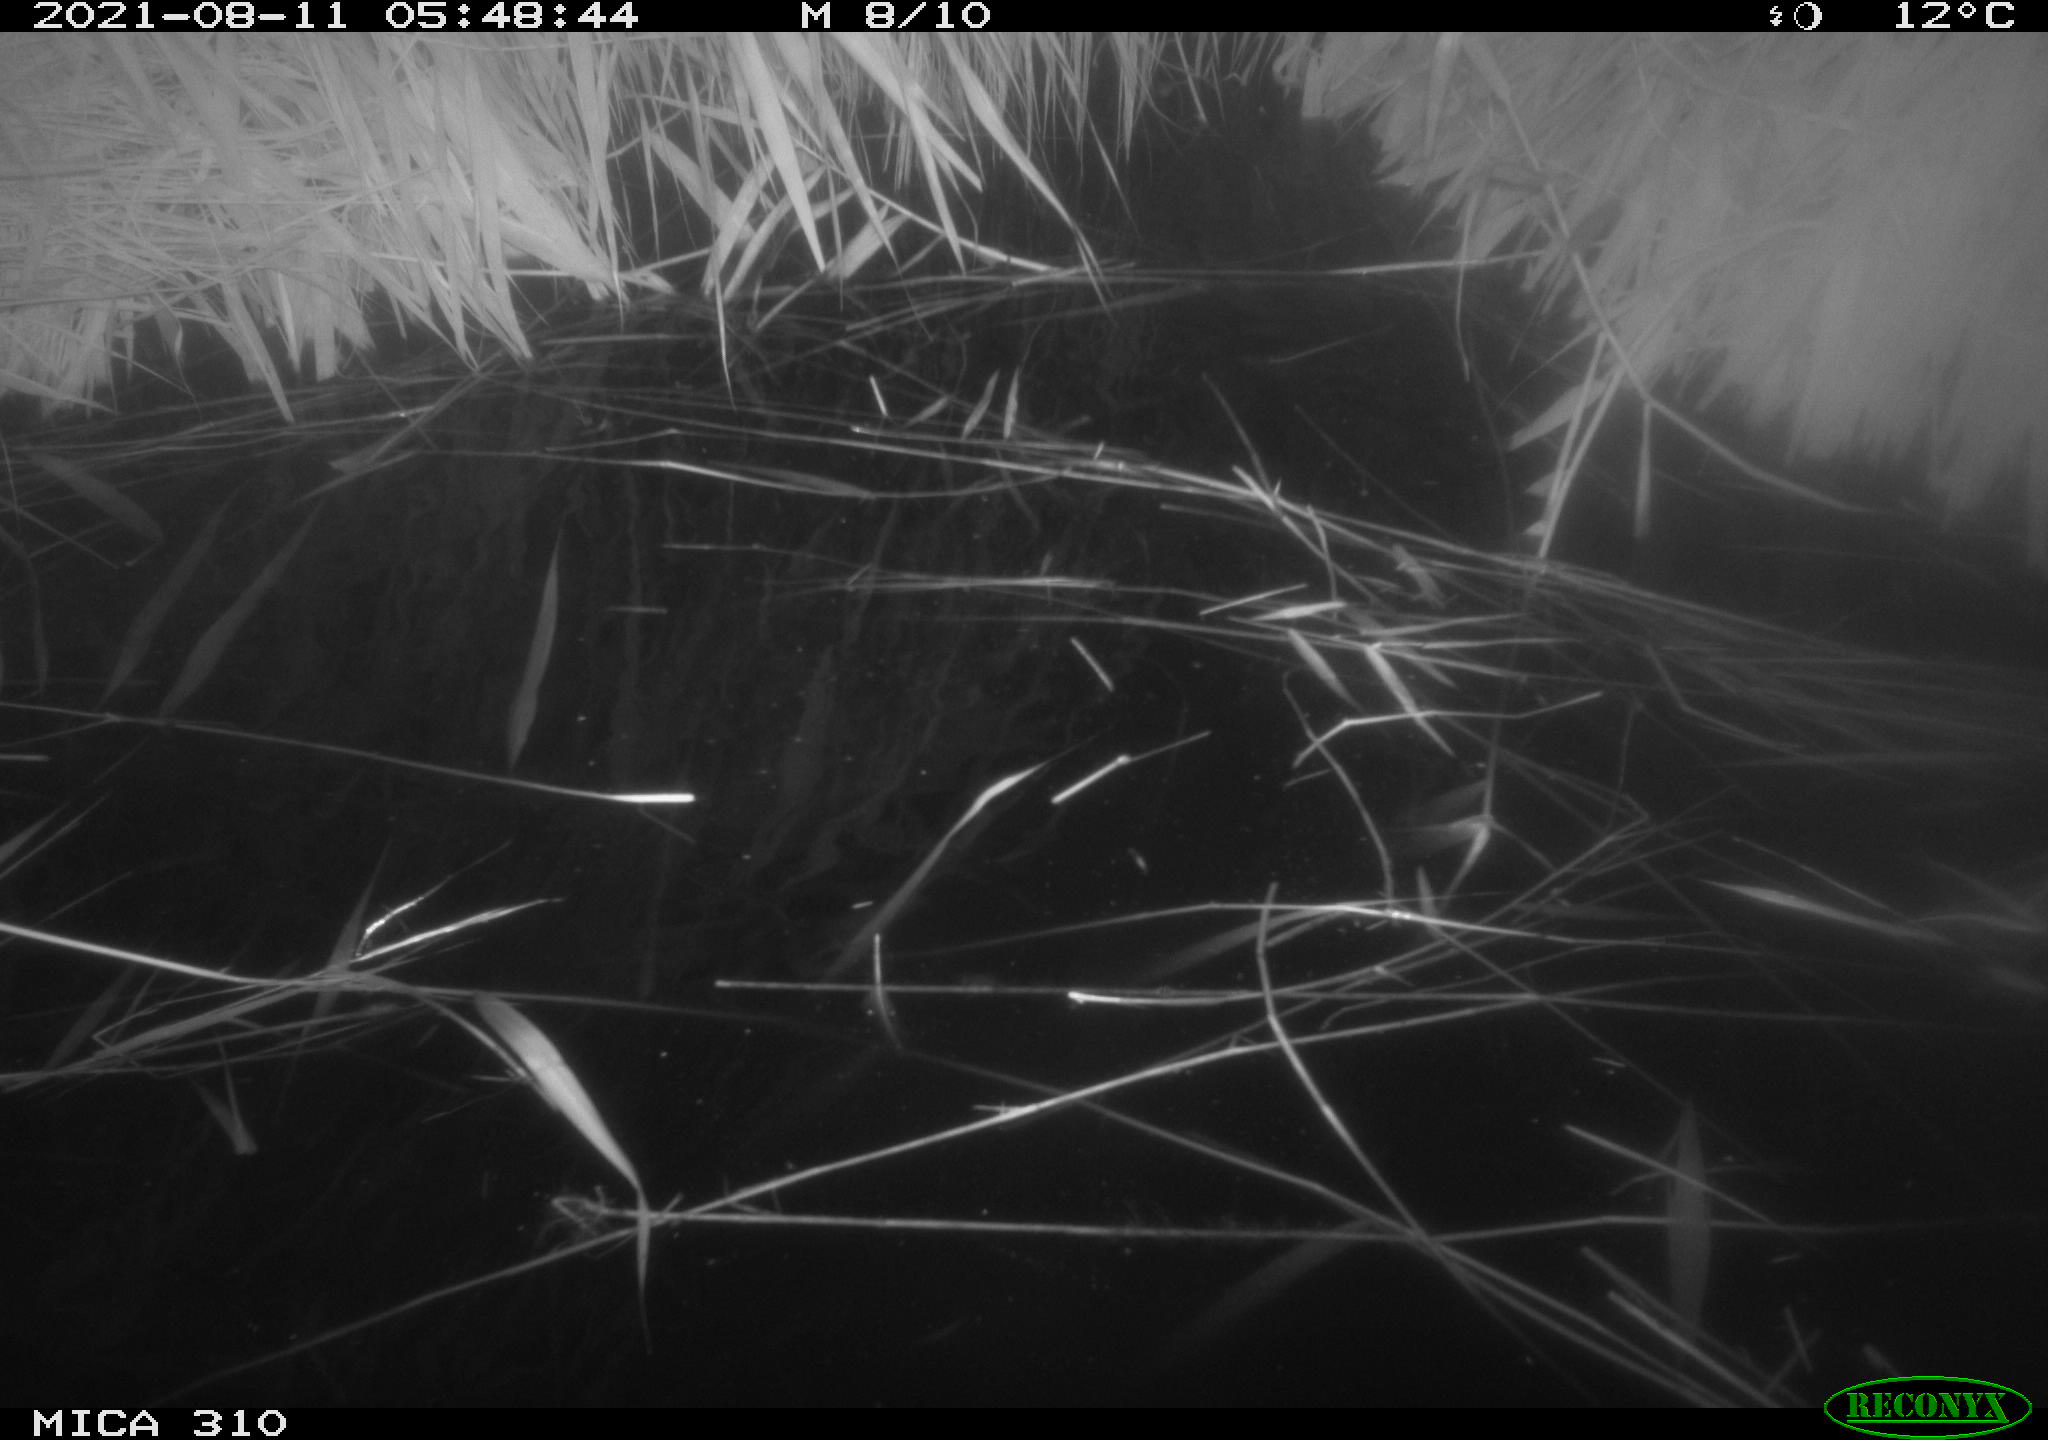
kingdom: Animalia
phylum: Chordata
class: Aves
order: Anseriformes
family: Anatidae
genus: Anas
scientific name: Anas platyrhynchos
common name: Mallard
